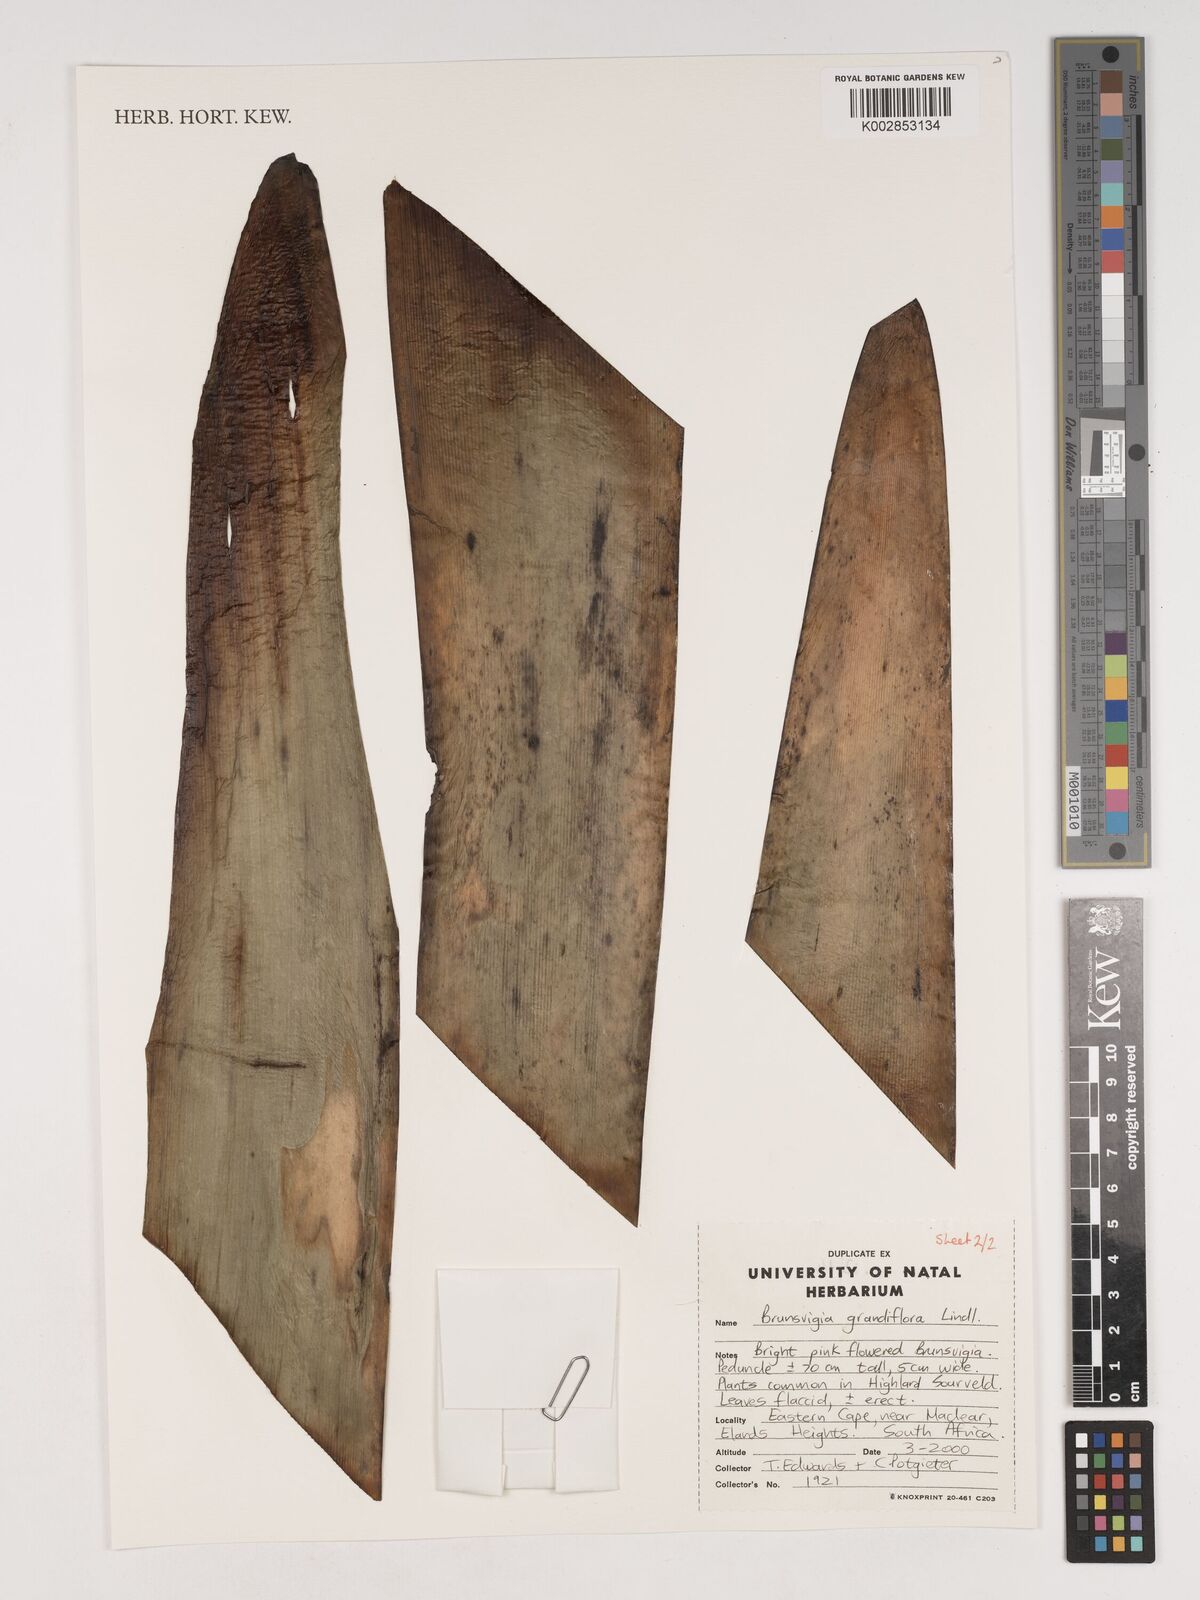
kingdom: Plantae
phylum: Tracheophyta
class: Liliopsida
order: Asparagales
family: Amaryllidaceae
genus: Brunsvigia
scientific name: Brunsvigia grandiflora
